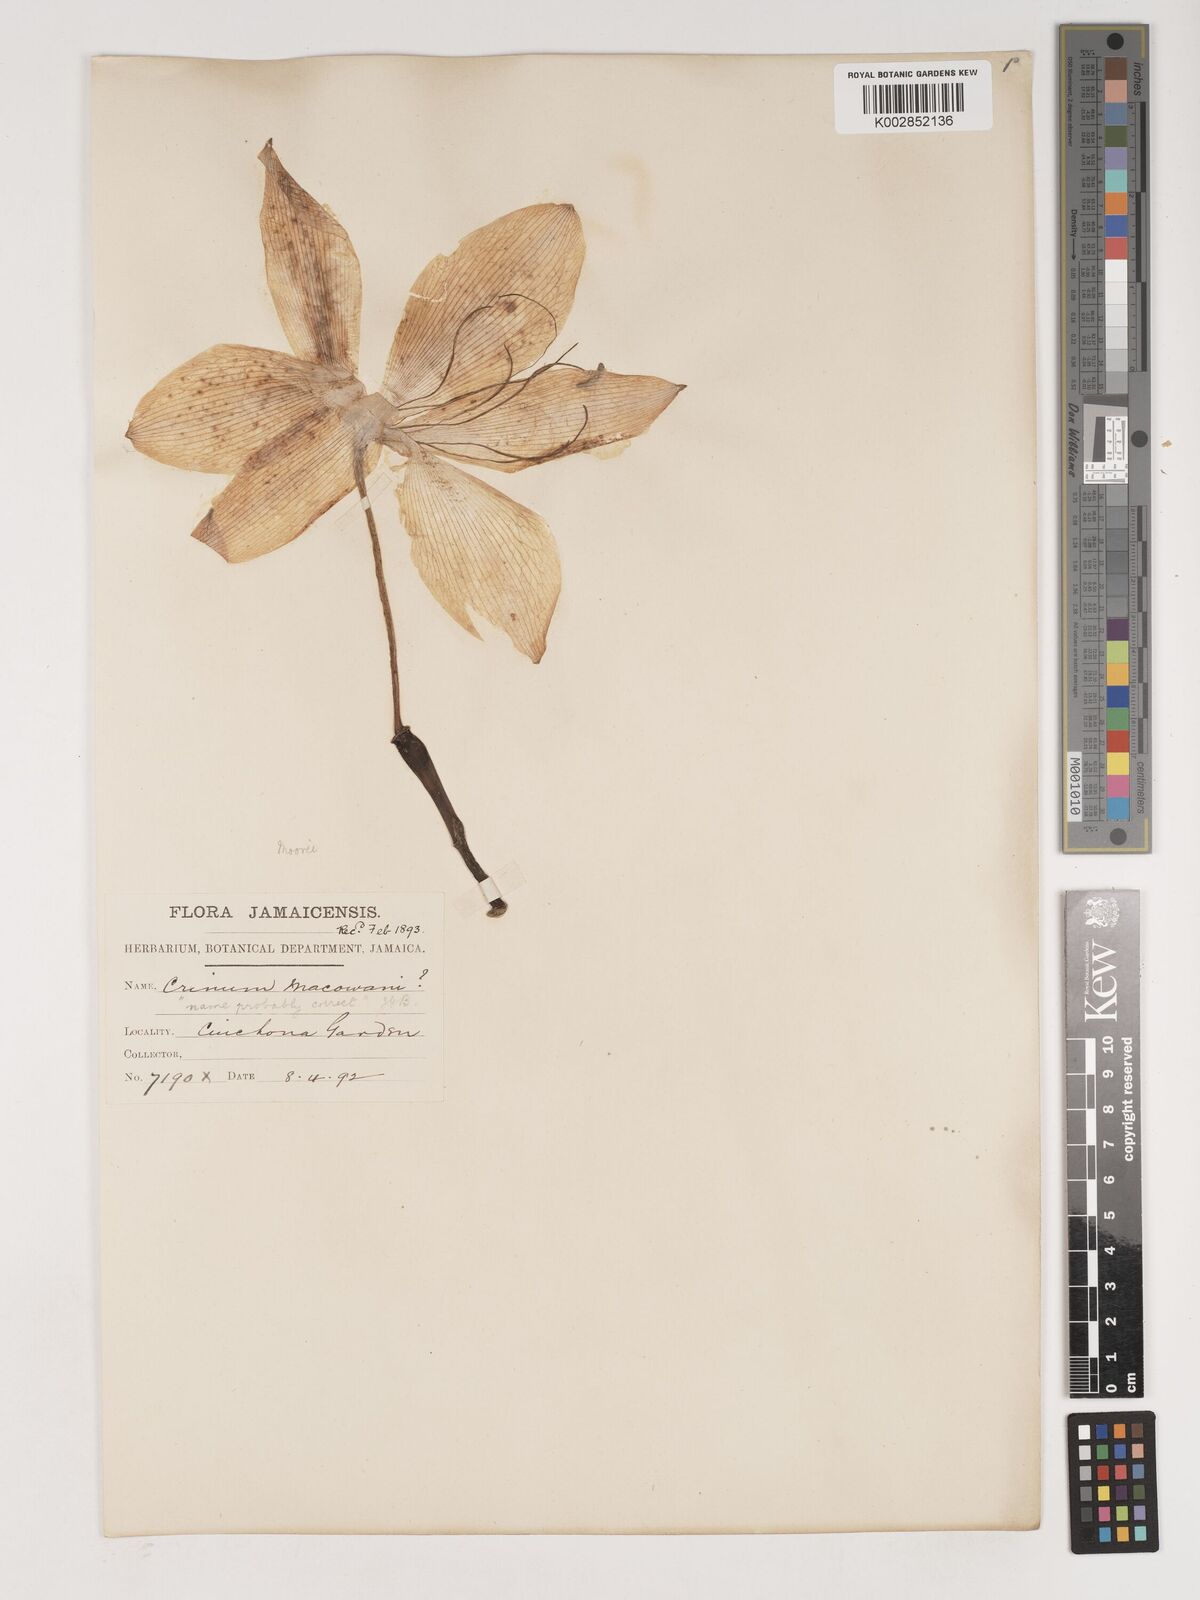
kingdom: Plantae
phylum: Tracheophyta
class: Liliopsida
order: Asparagales
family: Amaryllidaceae
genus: Crinum
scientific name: Crinum jagus
